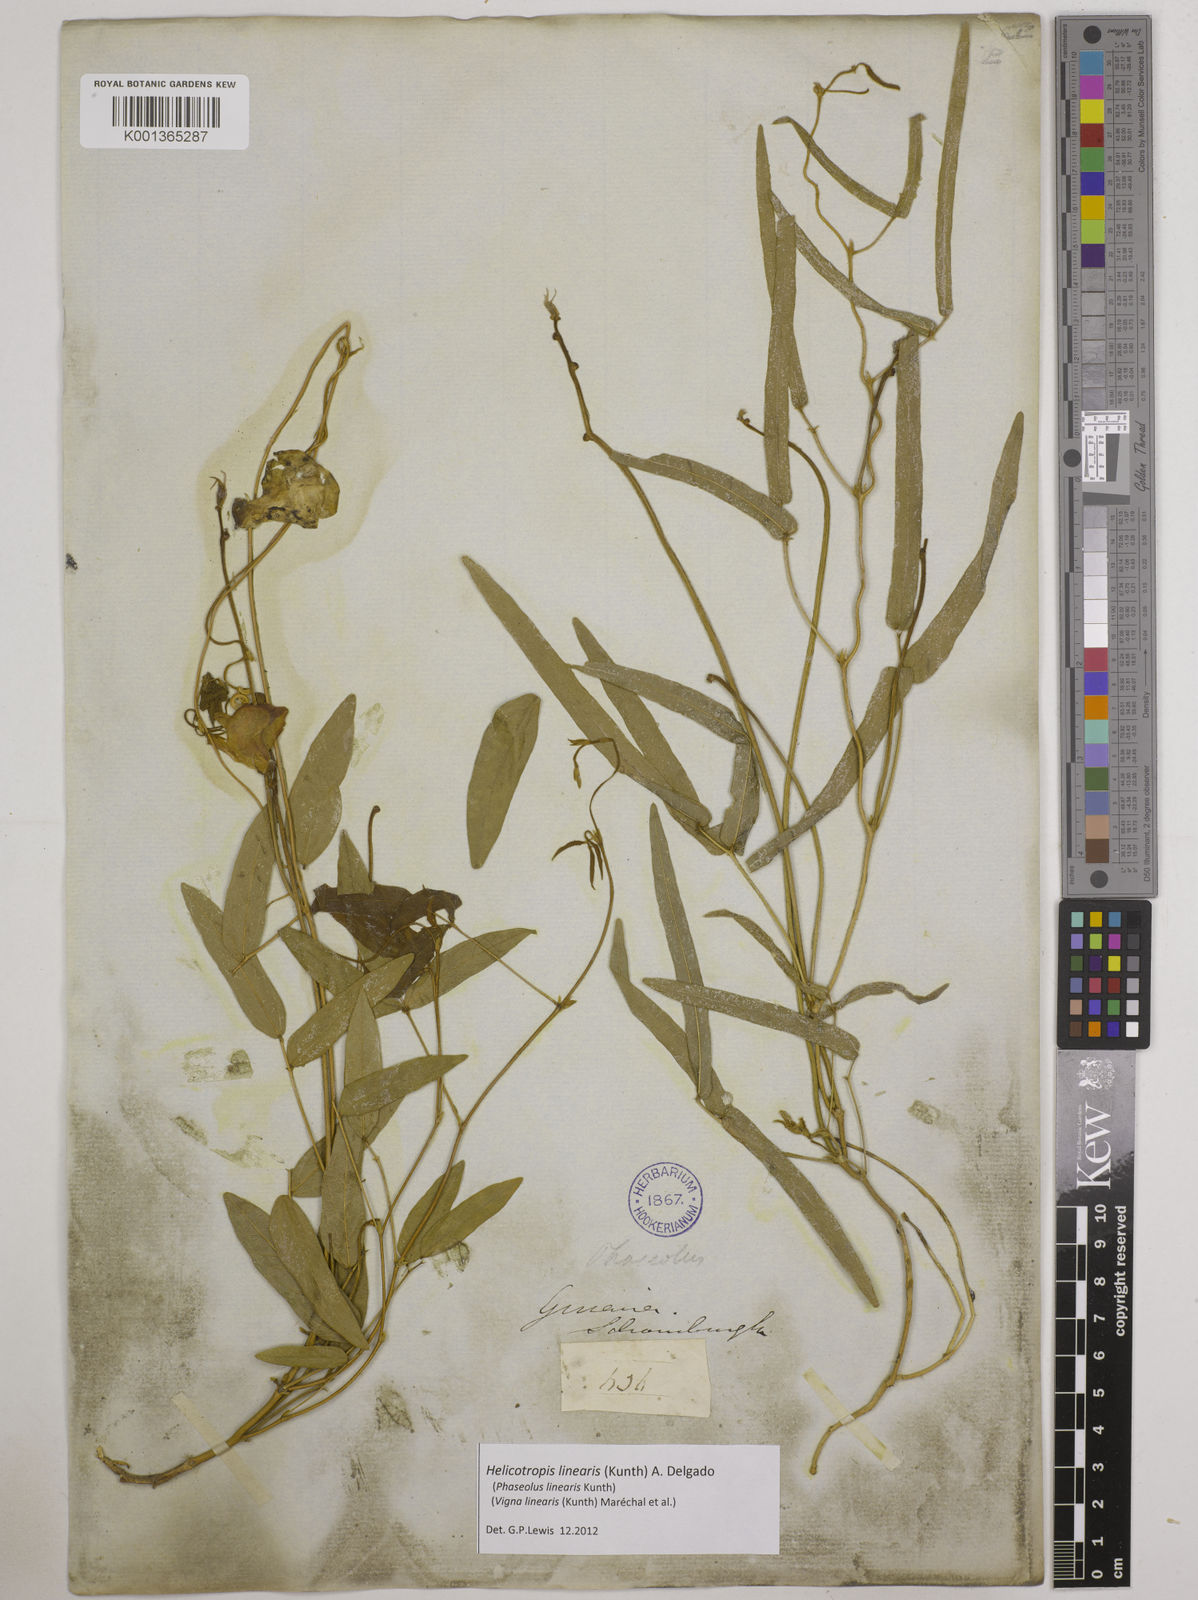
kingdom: Plantae
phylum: Tracheophyta
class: Magnoliopsida
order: Fabales
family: Fabaceae
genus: Helicotropis
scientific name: Helicotropis linearis
